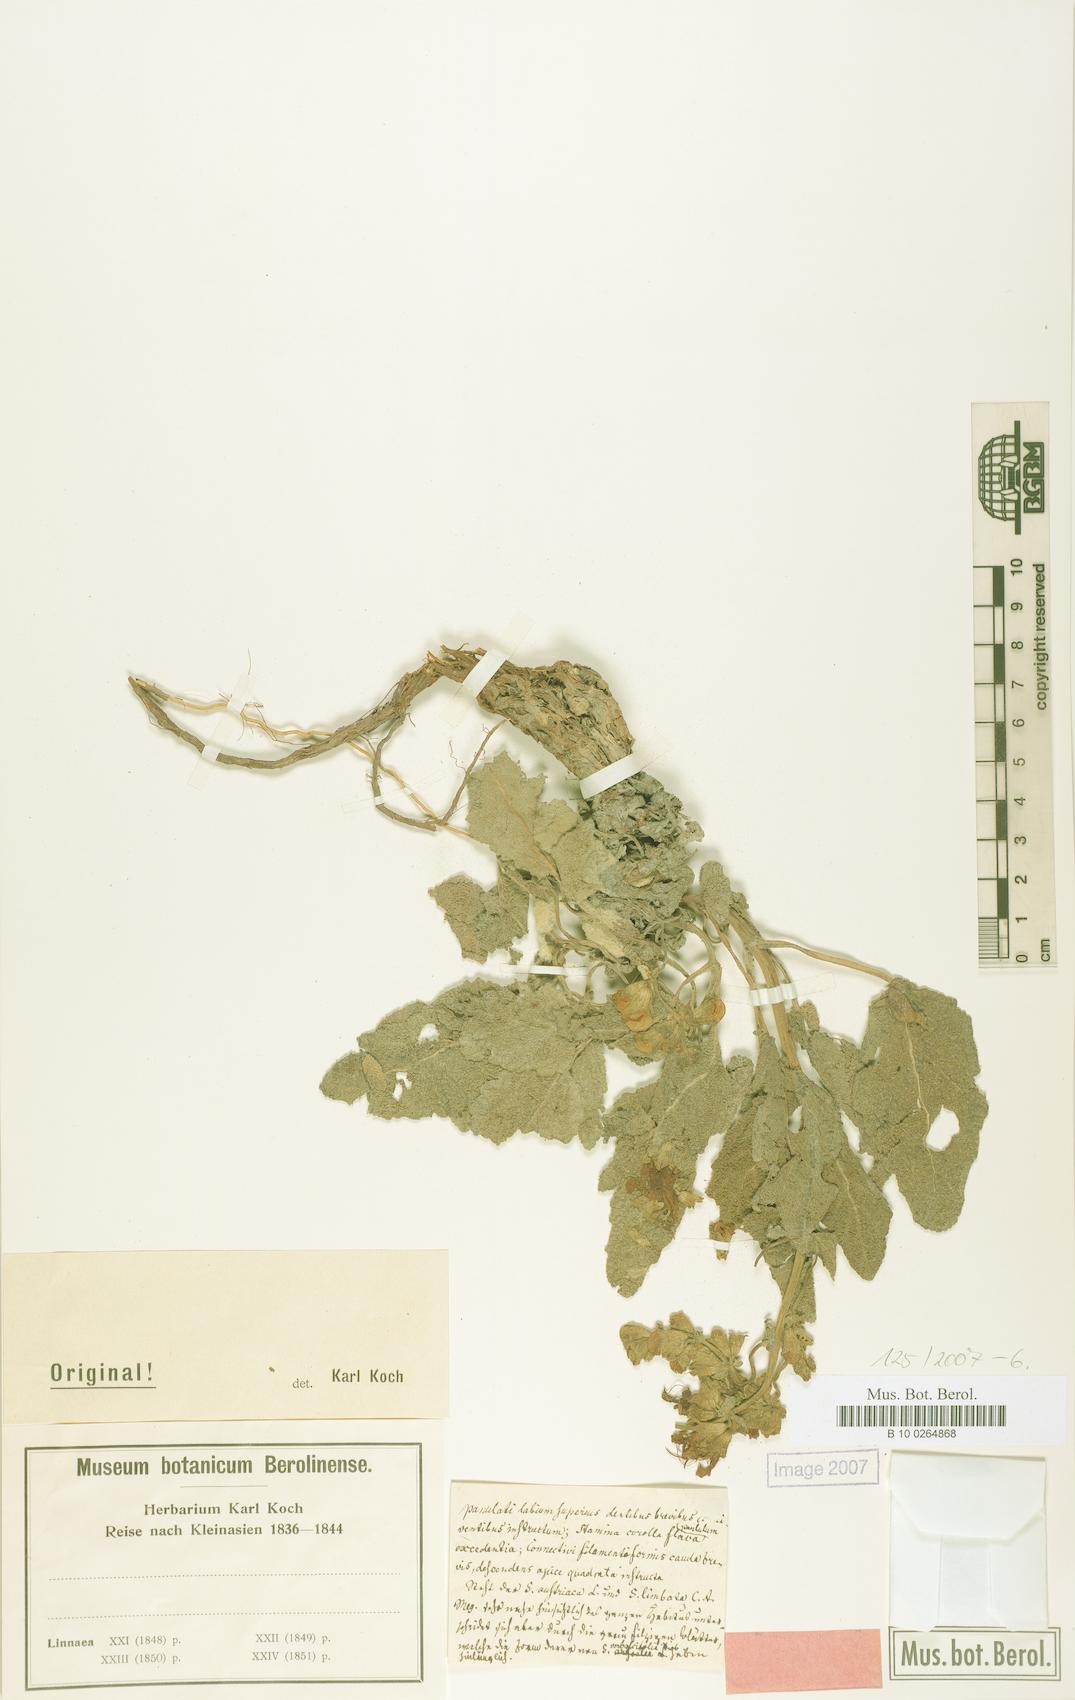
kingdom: Plantae
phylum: Tracheophyta
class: Magnoliopsida
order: Lamiales
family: Lamiaceae
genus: Salvia
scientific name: Salvia
